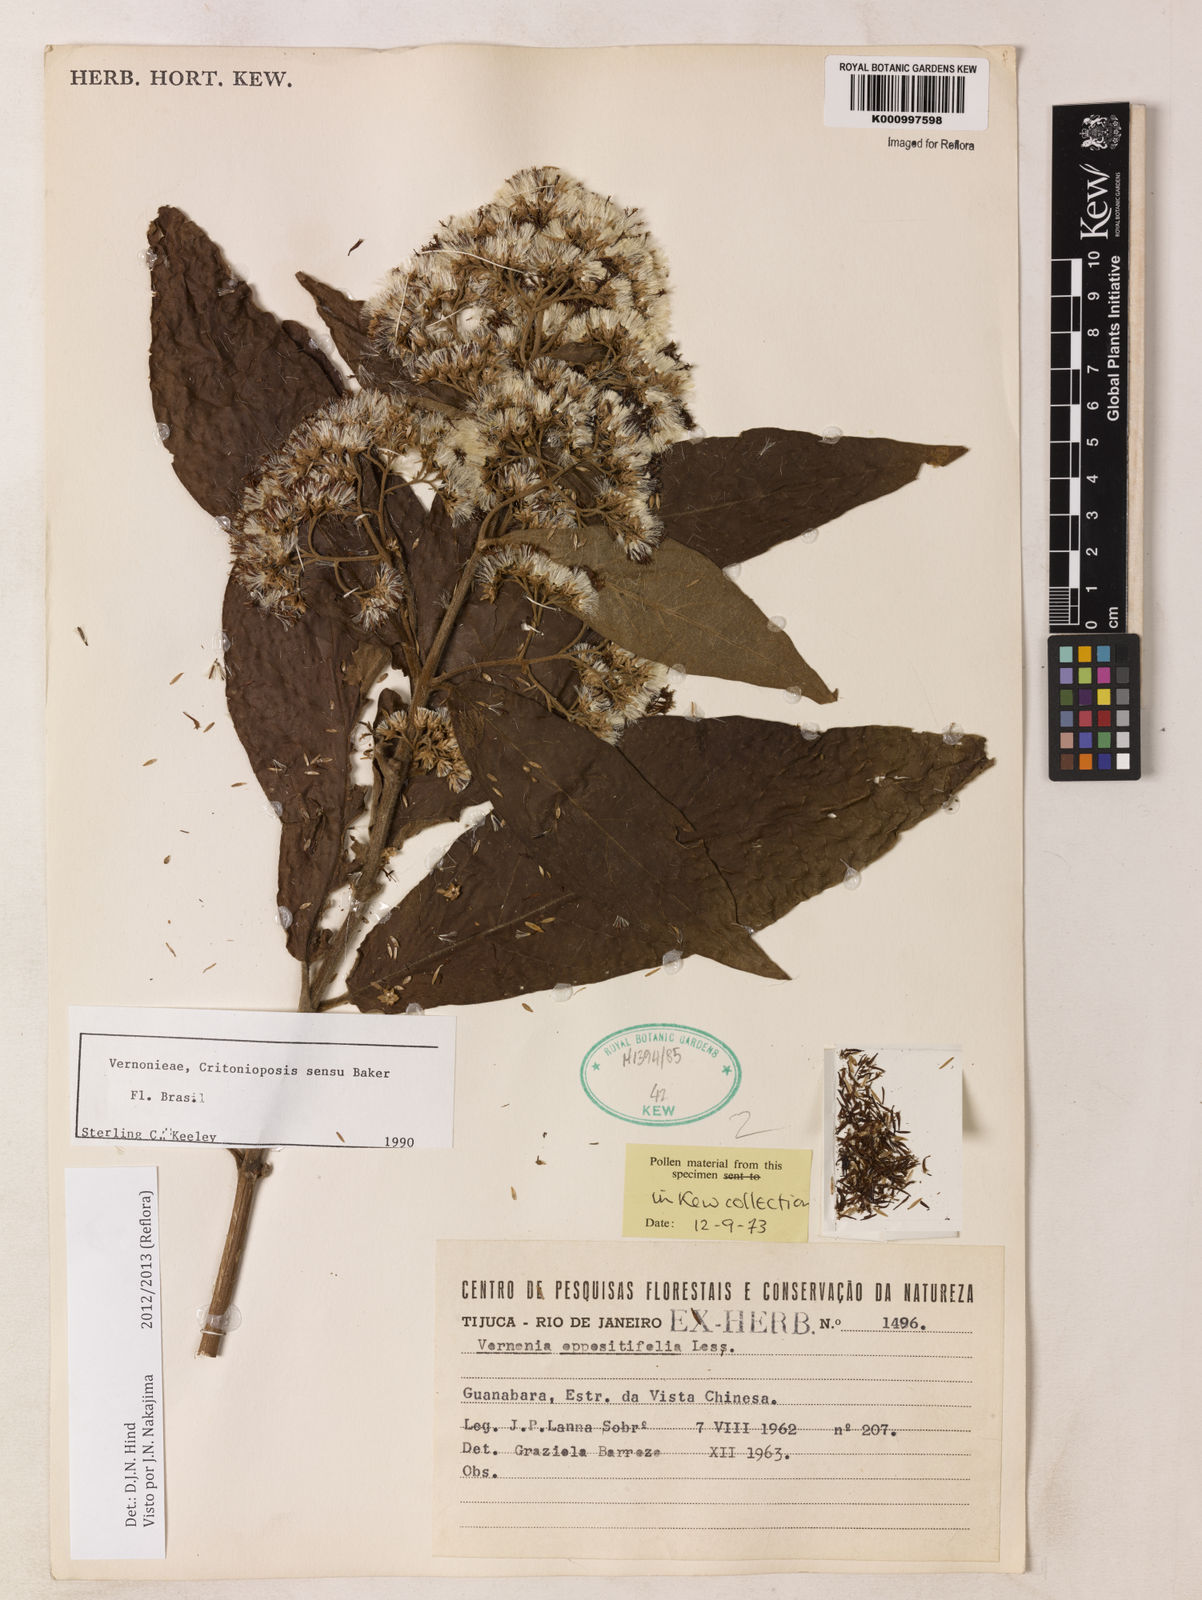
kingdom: Plantae
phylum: Tracheophyta
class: Magnoliopsida
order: Asterales
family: Asteraceae
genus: Critoniopsis
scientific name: Critoniopsis stellata
